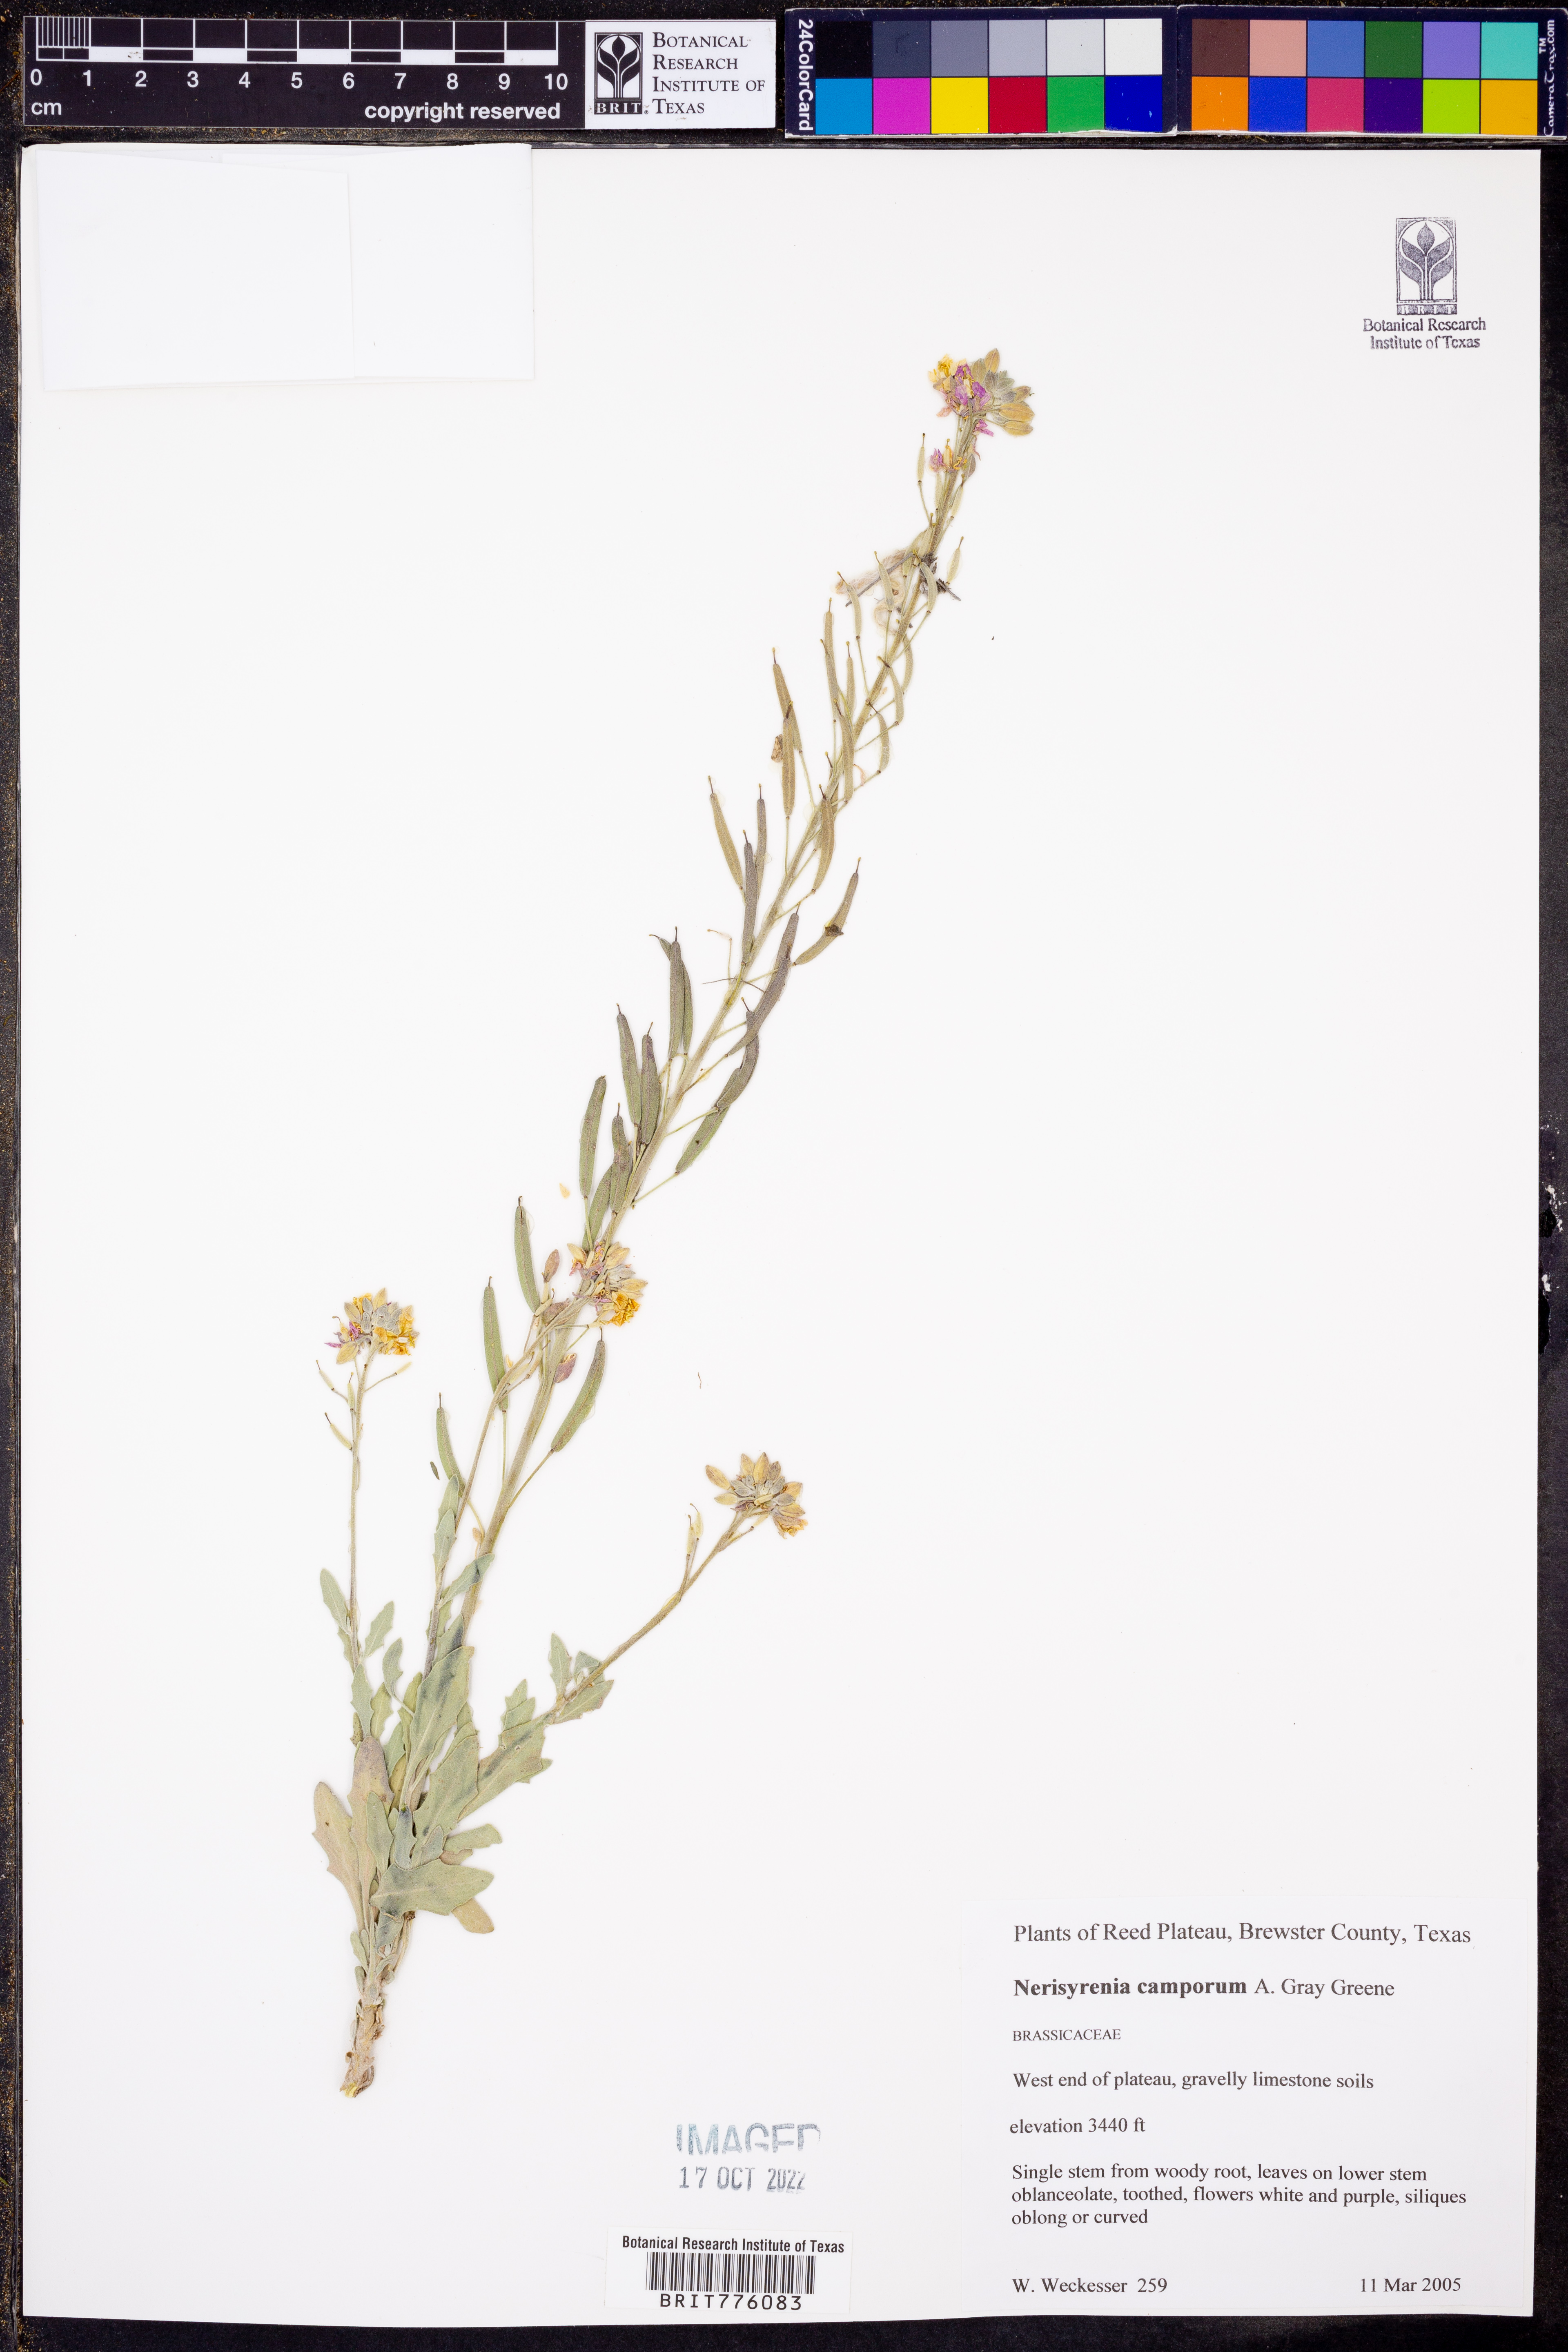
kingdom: Plantae
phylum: Tracheophyta
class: Magnoliopsida
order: Brassicales
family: Brassicaceae
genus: Nerisyrenia
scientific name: Nerisyrenia camporum
